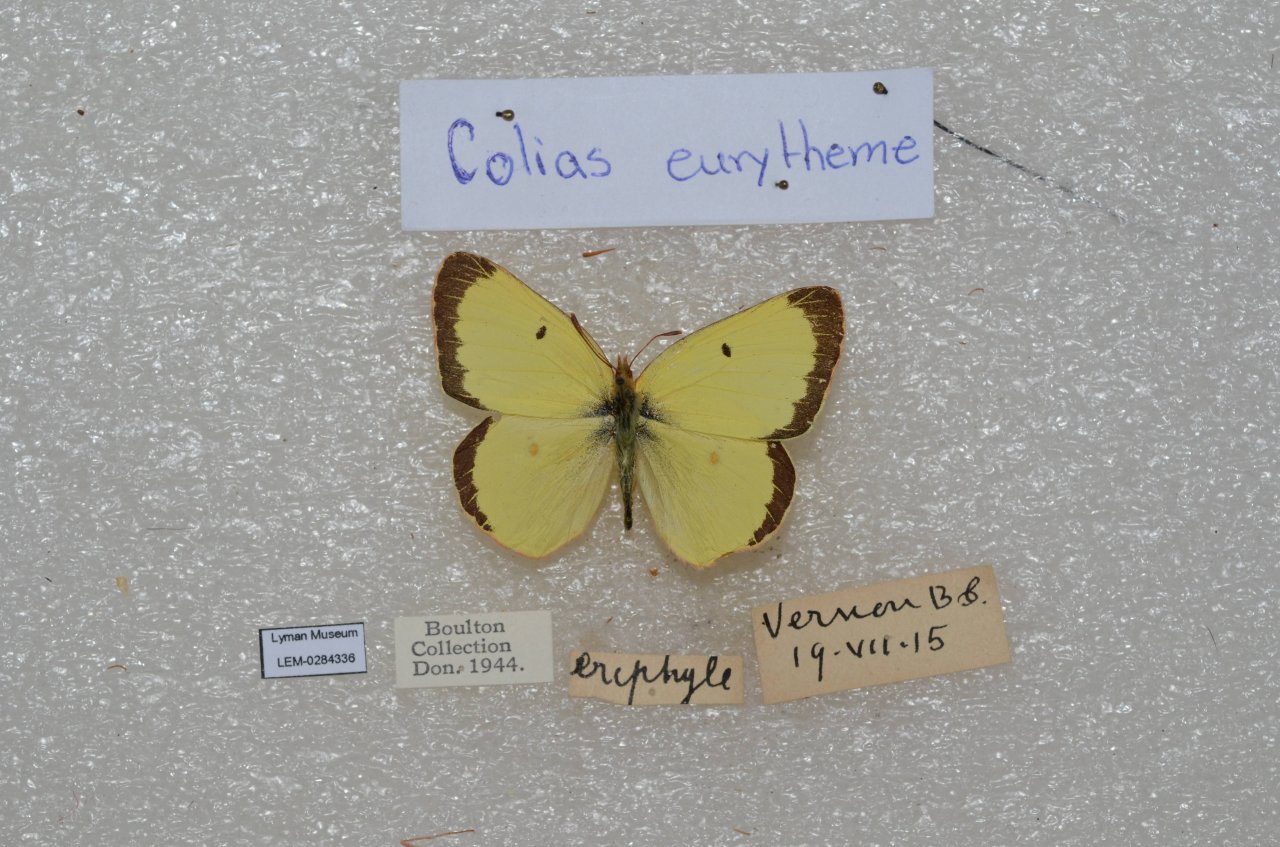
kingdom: Animalia
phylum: Arthropoda
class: Insecta
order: Lepidoptera
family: Pieridae
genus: Colias
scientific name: Colias eurytheme
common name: Orange Sulphur
